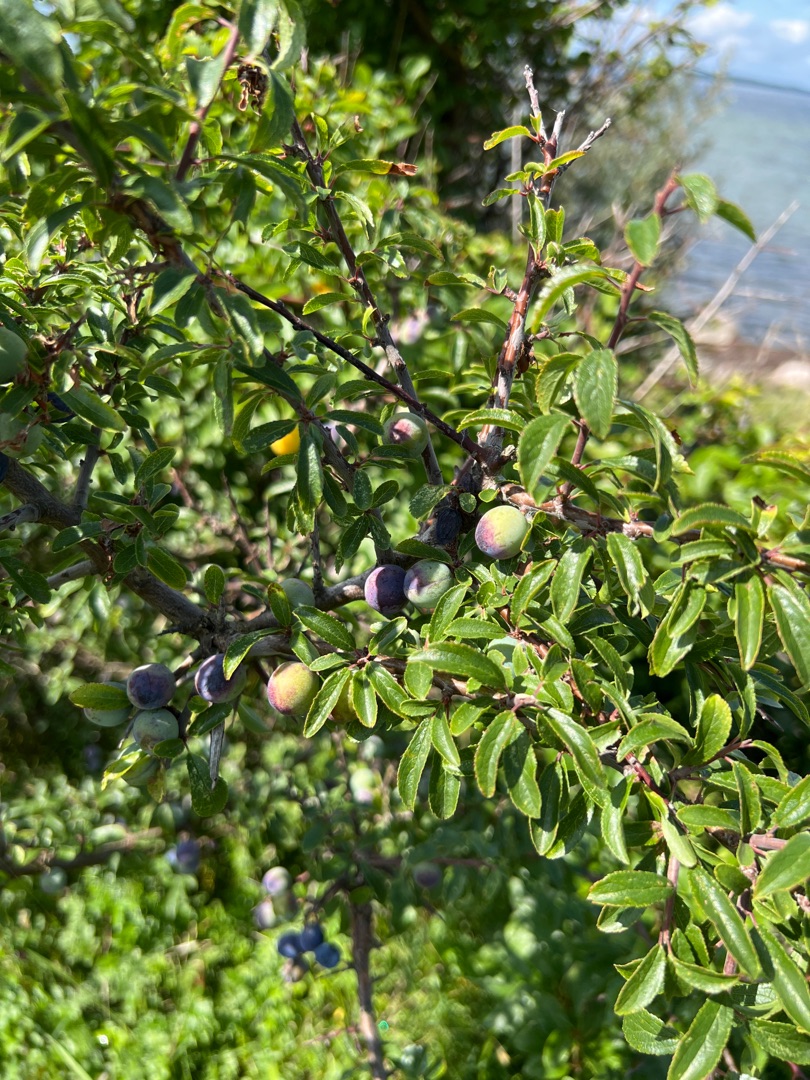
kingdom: Plantae
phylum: Tracheophyta
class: Magnoliopsida
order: Rosales
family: Rosaceae
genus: Prunus
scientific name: Prunus spinosa
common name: Slåen
